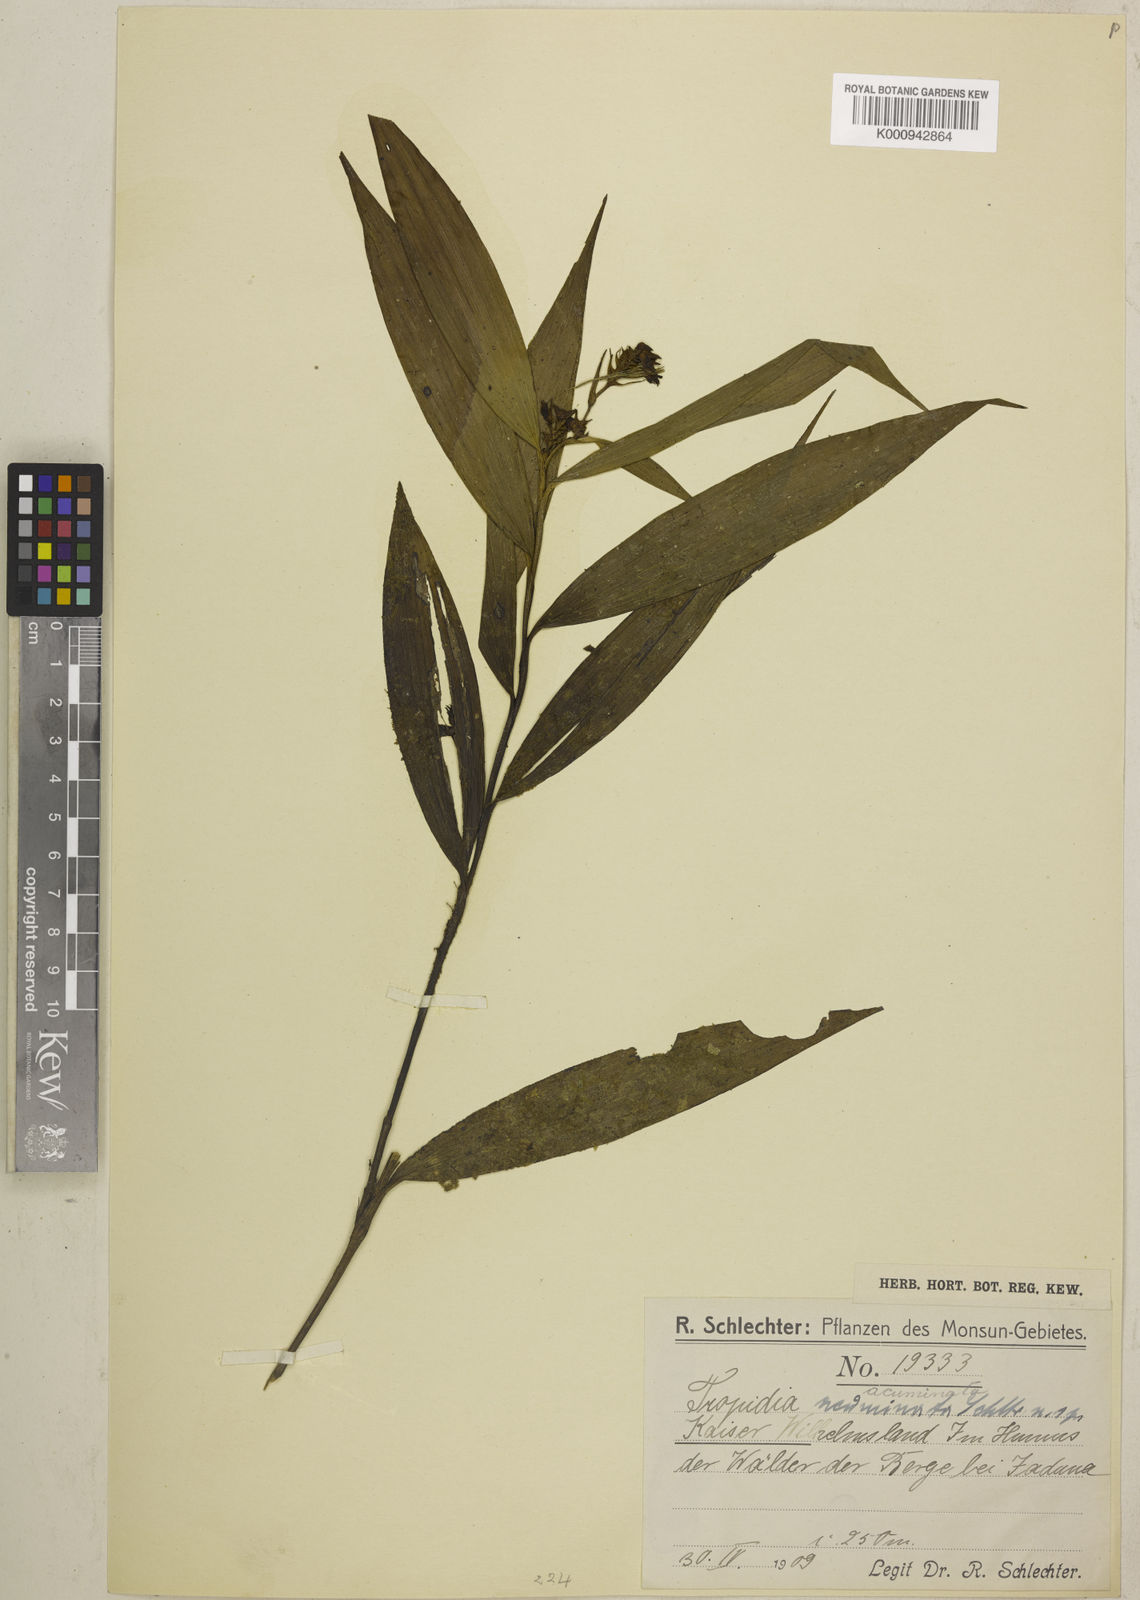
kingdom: Plantae
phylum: Tracheophyta
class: Liliopsida
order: Asparagales
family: Orchidaceae
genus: Tropidia
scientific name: Tropidia pedunculata
